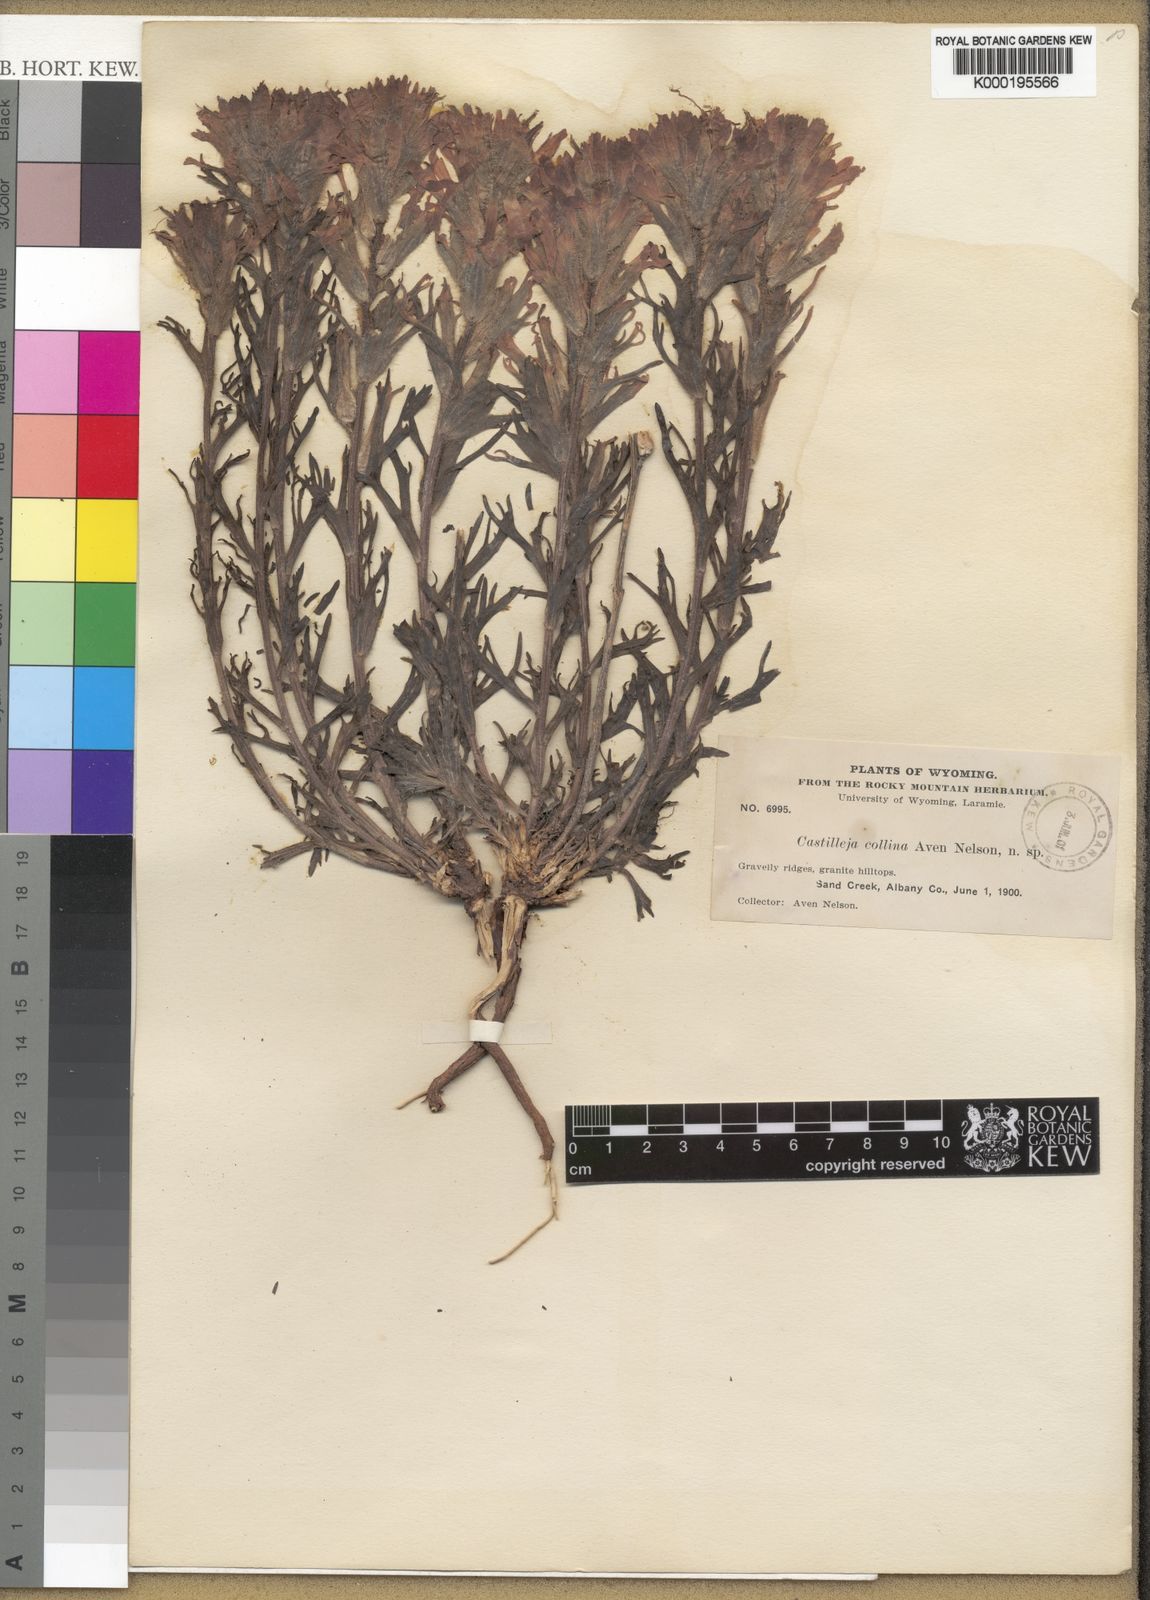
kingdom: Plantae
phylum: Tracheophyta
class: Magnoliopsida
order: Lamiales
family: Orobanchaceae
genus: Castilleja
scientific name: Castilleja chromosa
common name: Desert paintbrush
